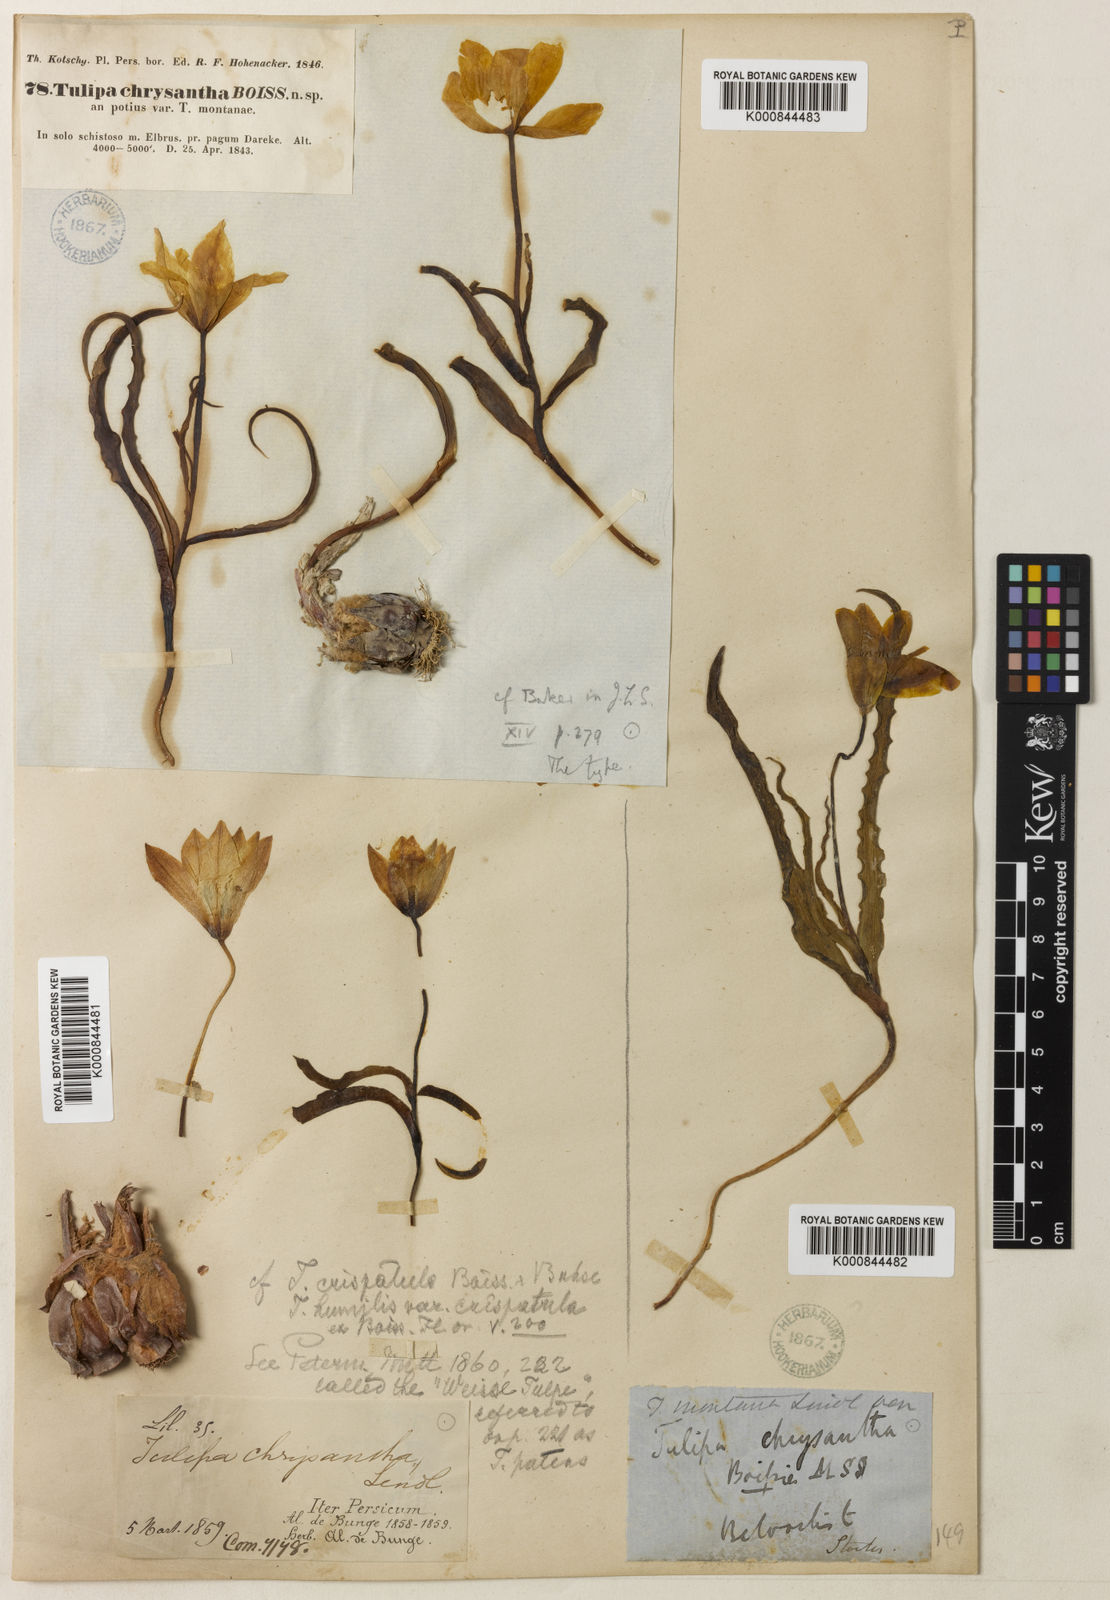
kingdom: Plantae
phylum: Tracheophyta
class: Liliopsida
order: Liliales
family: Liliaceae
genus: Tulipa
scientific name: Tulipa montana
